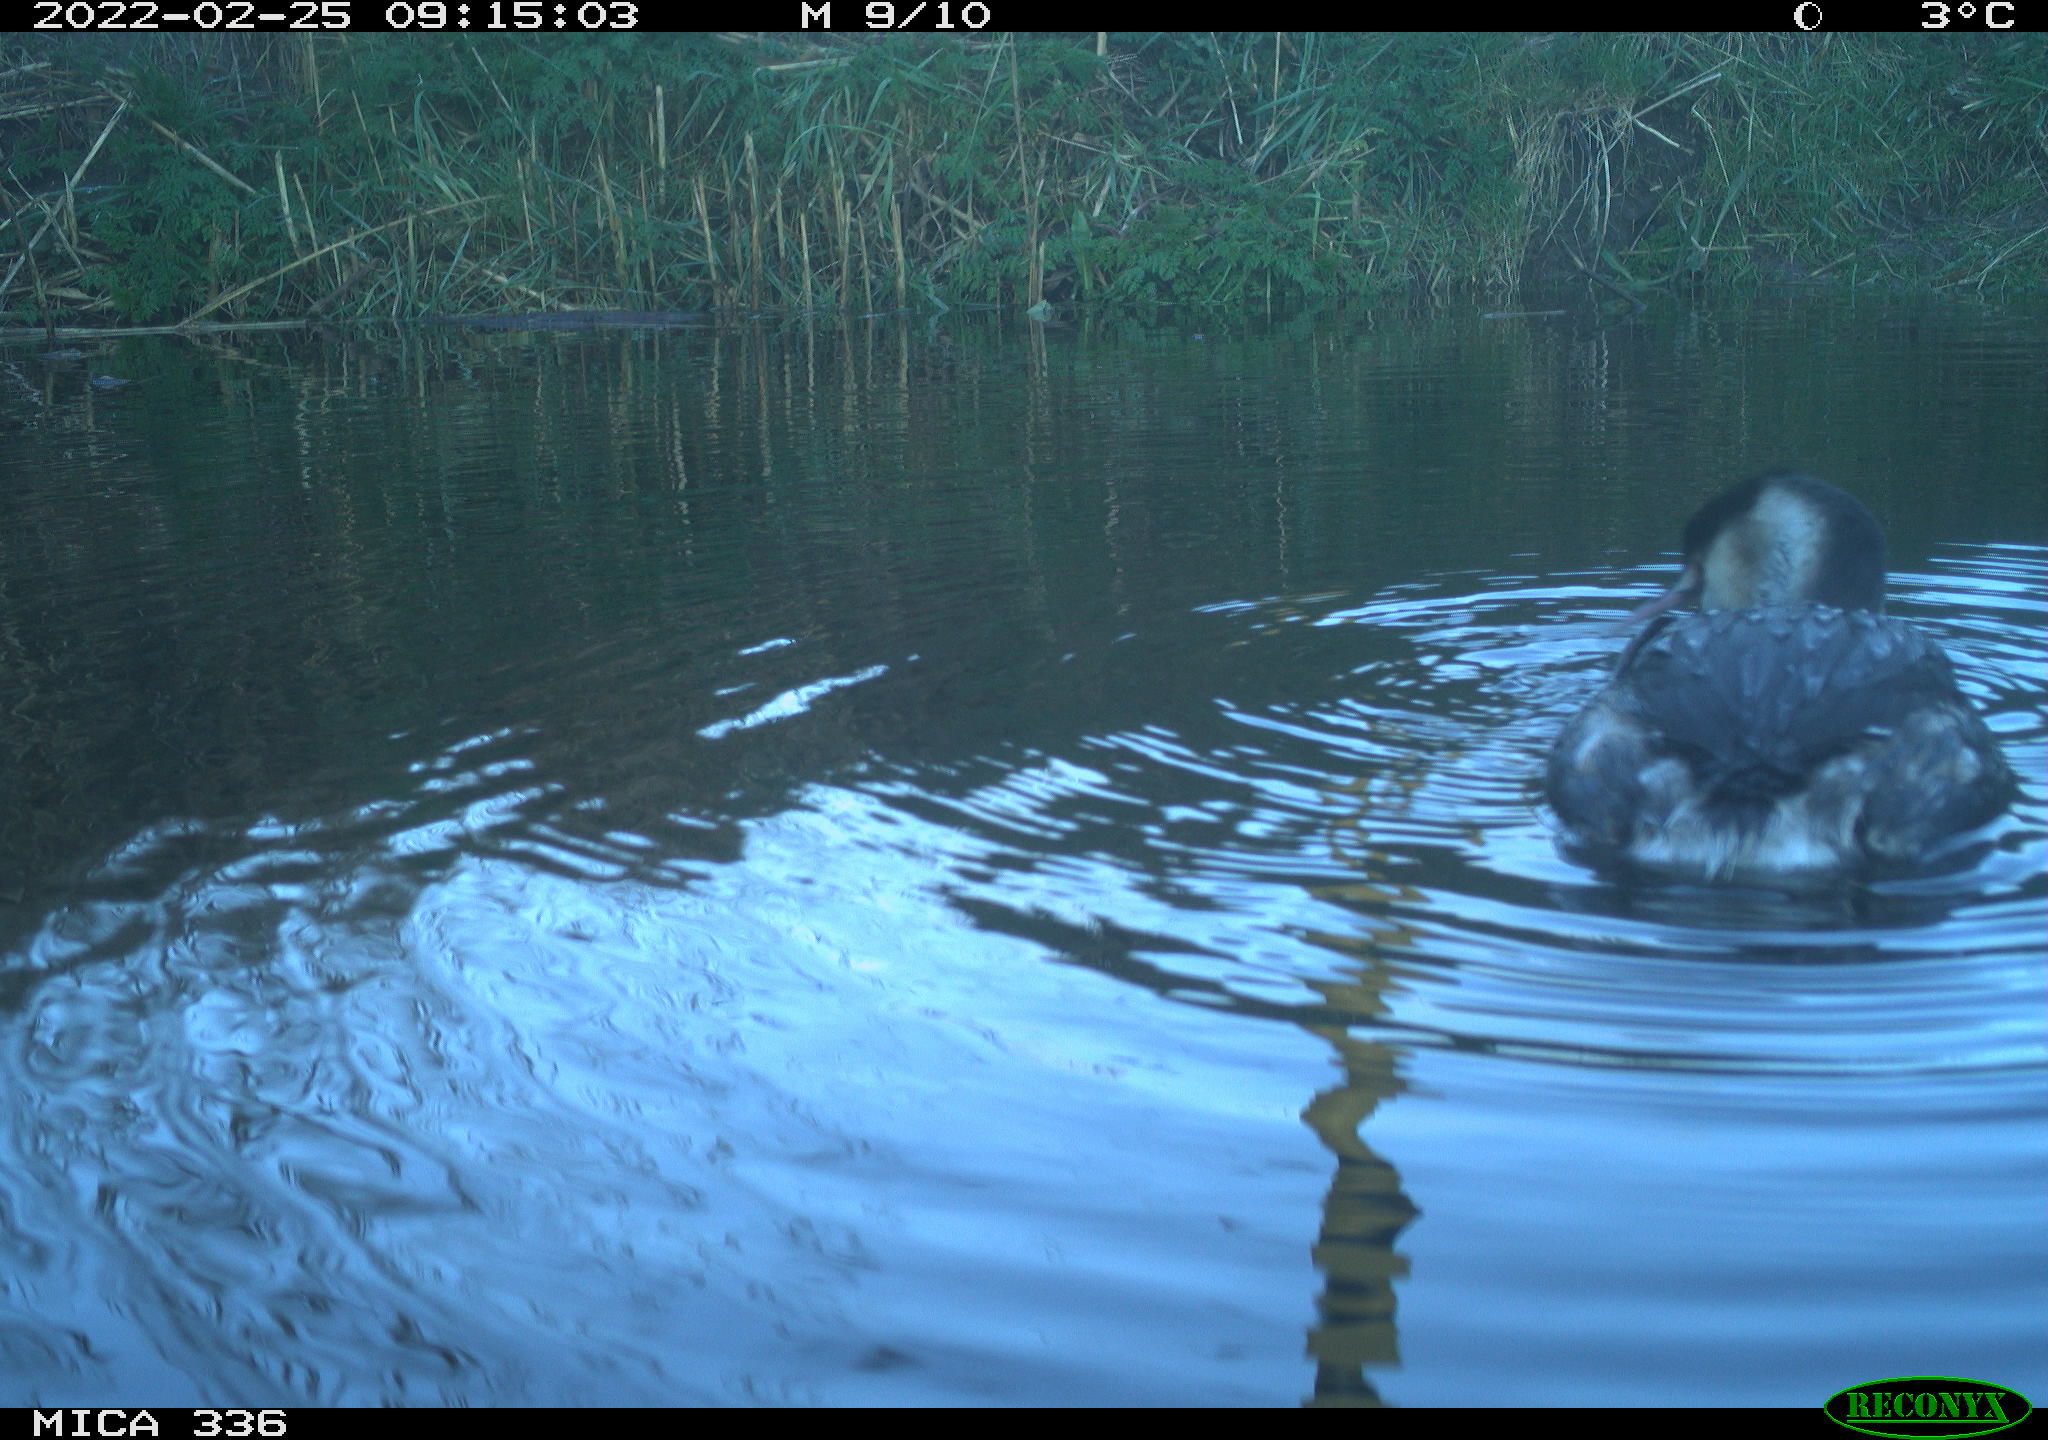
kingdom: Animalia
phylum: Chordata
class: Aves
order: Podicipediformes
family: Podicipedidae
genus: Podiceps
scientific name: Podiceps cristatus
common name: Great crested grebe
